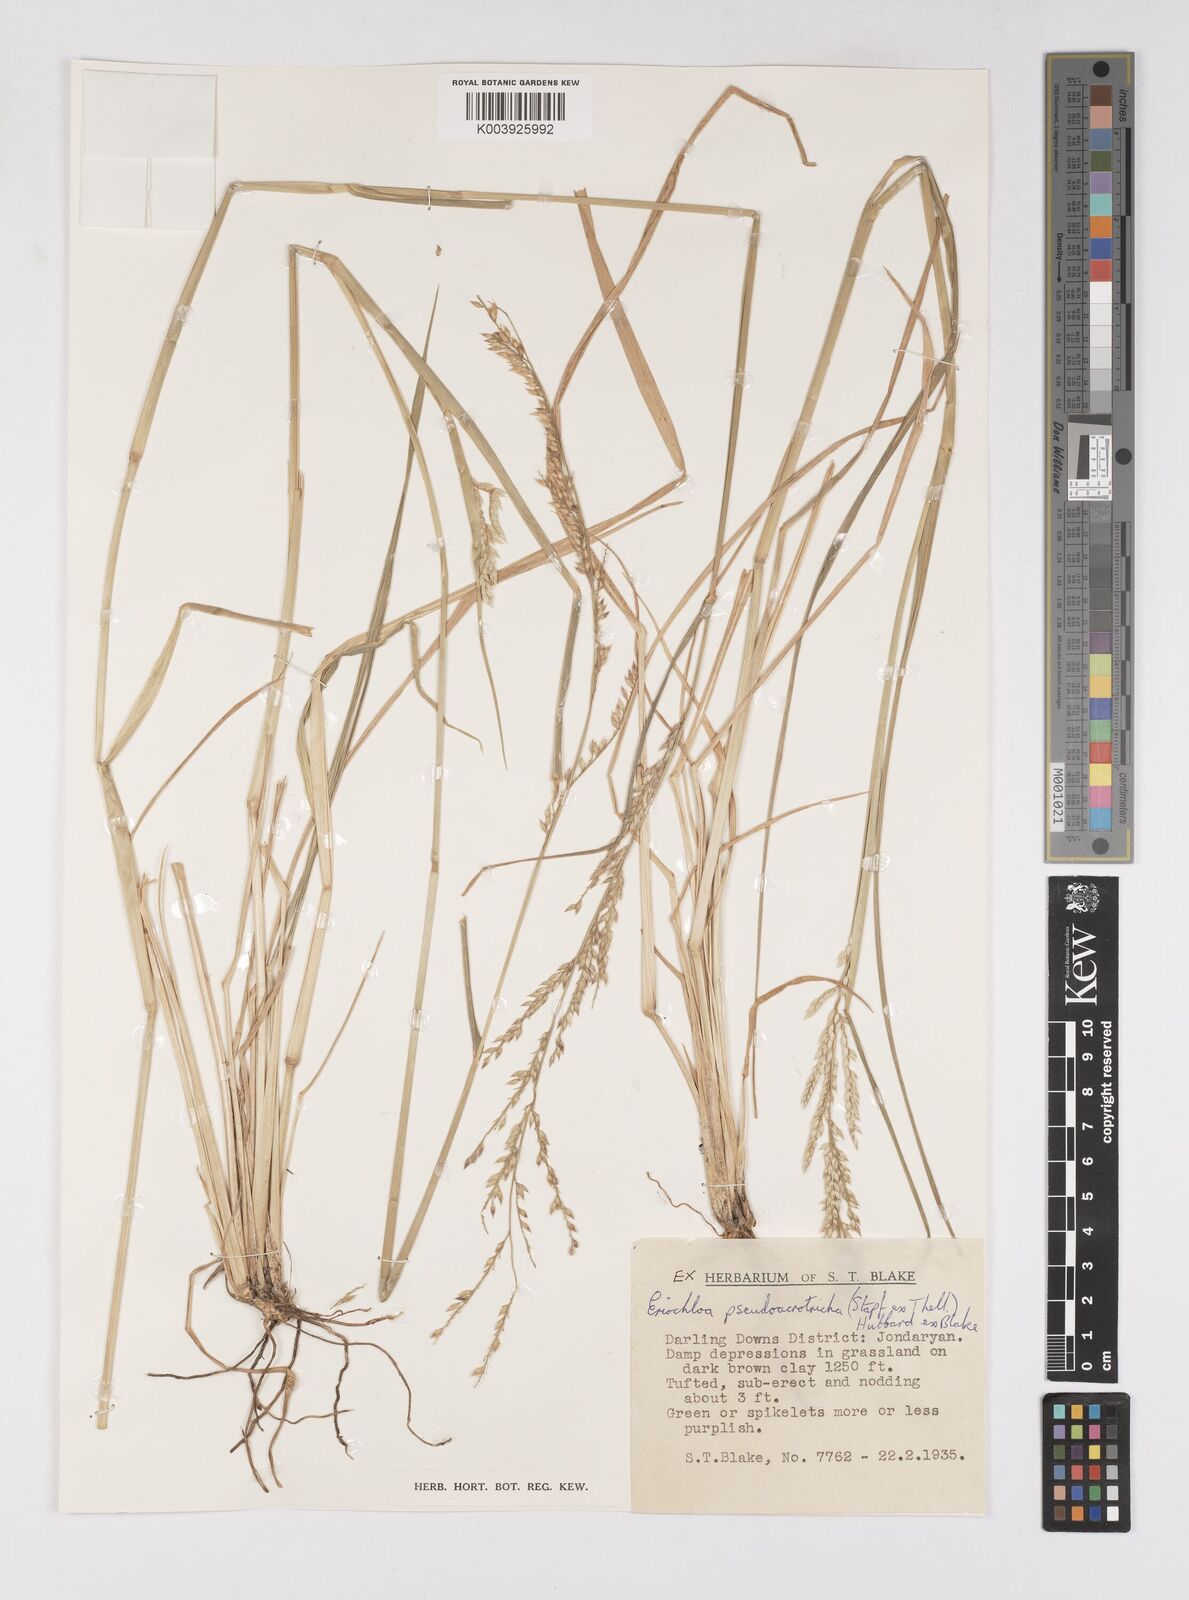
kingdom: Plantae
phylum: Tracheophyta
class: Liliopsida
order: Poales
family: Poaceae
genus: Eriochloa
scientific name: Eriochloa pseudoacrotricha
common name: Perennial cup-grass
